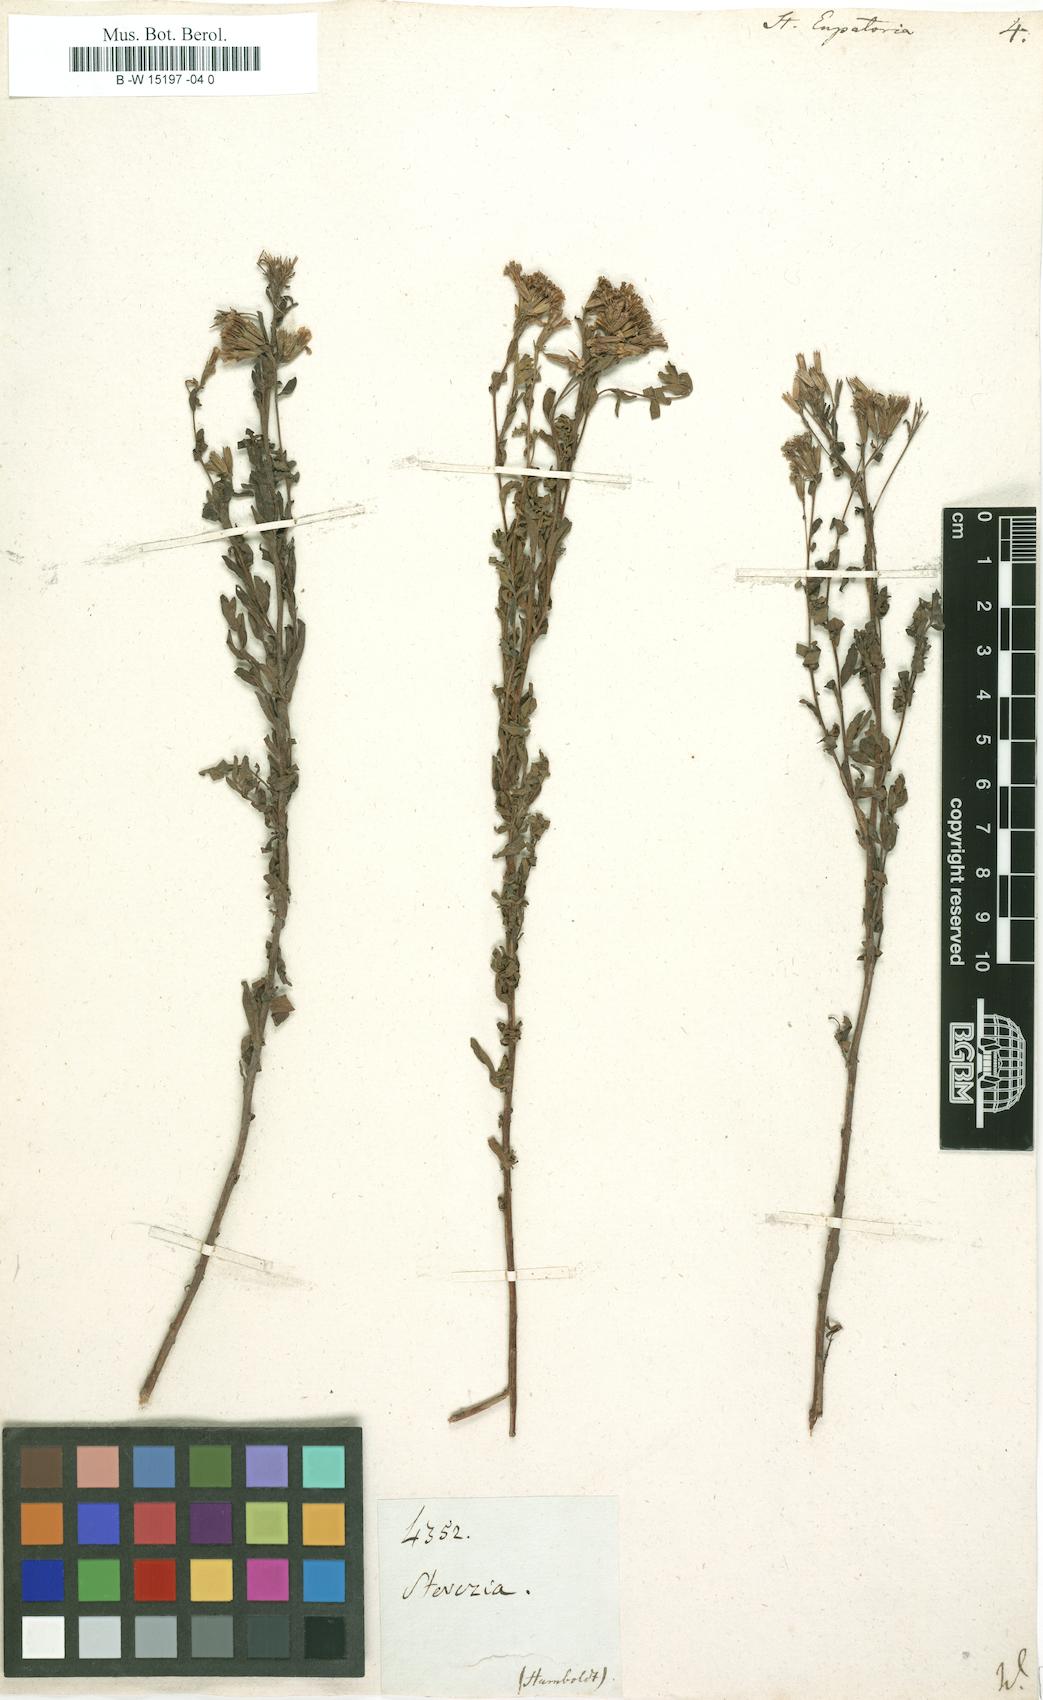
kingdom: Plantae
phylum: Tracheophyta
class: Magnoliopsida
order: Asterales
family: Asteraceae
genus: Stevia
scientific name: Stevia eupatoria
